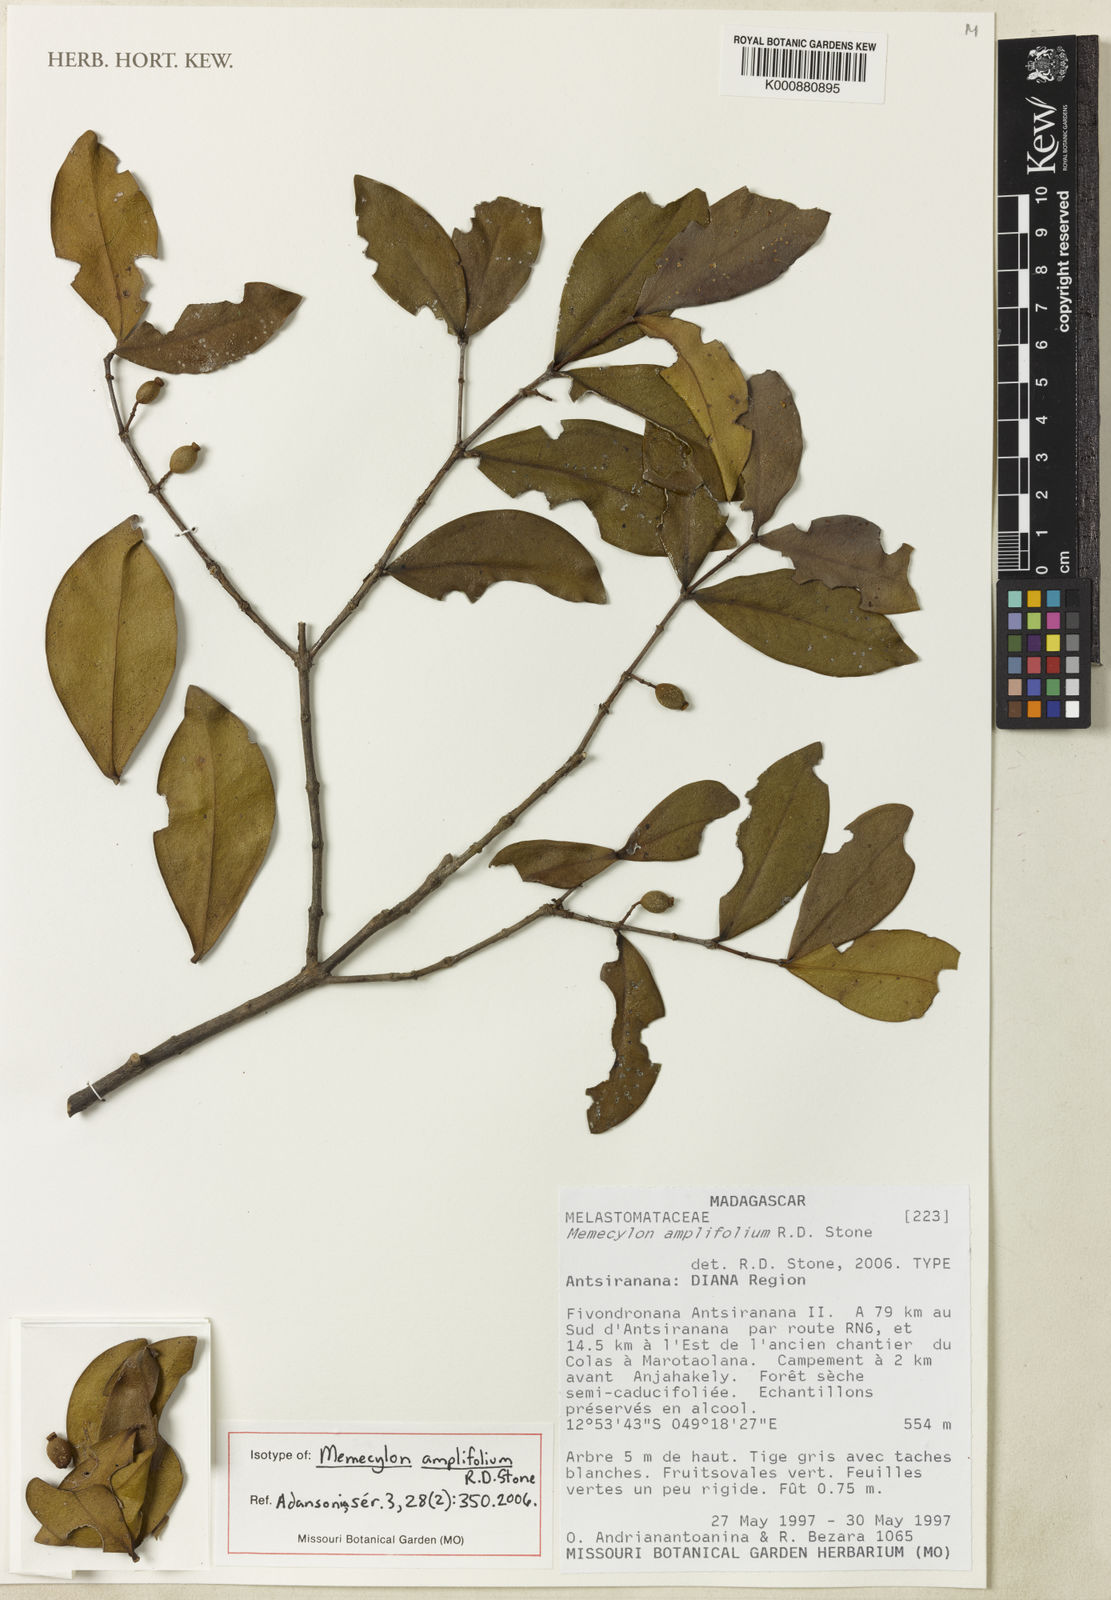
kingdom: Plantae
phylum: Tracheophyta
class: Magnoliopsida
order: Myrtales
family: Melastomataceae
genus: Memecylon
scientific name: Memecylon amplifolium
